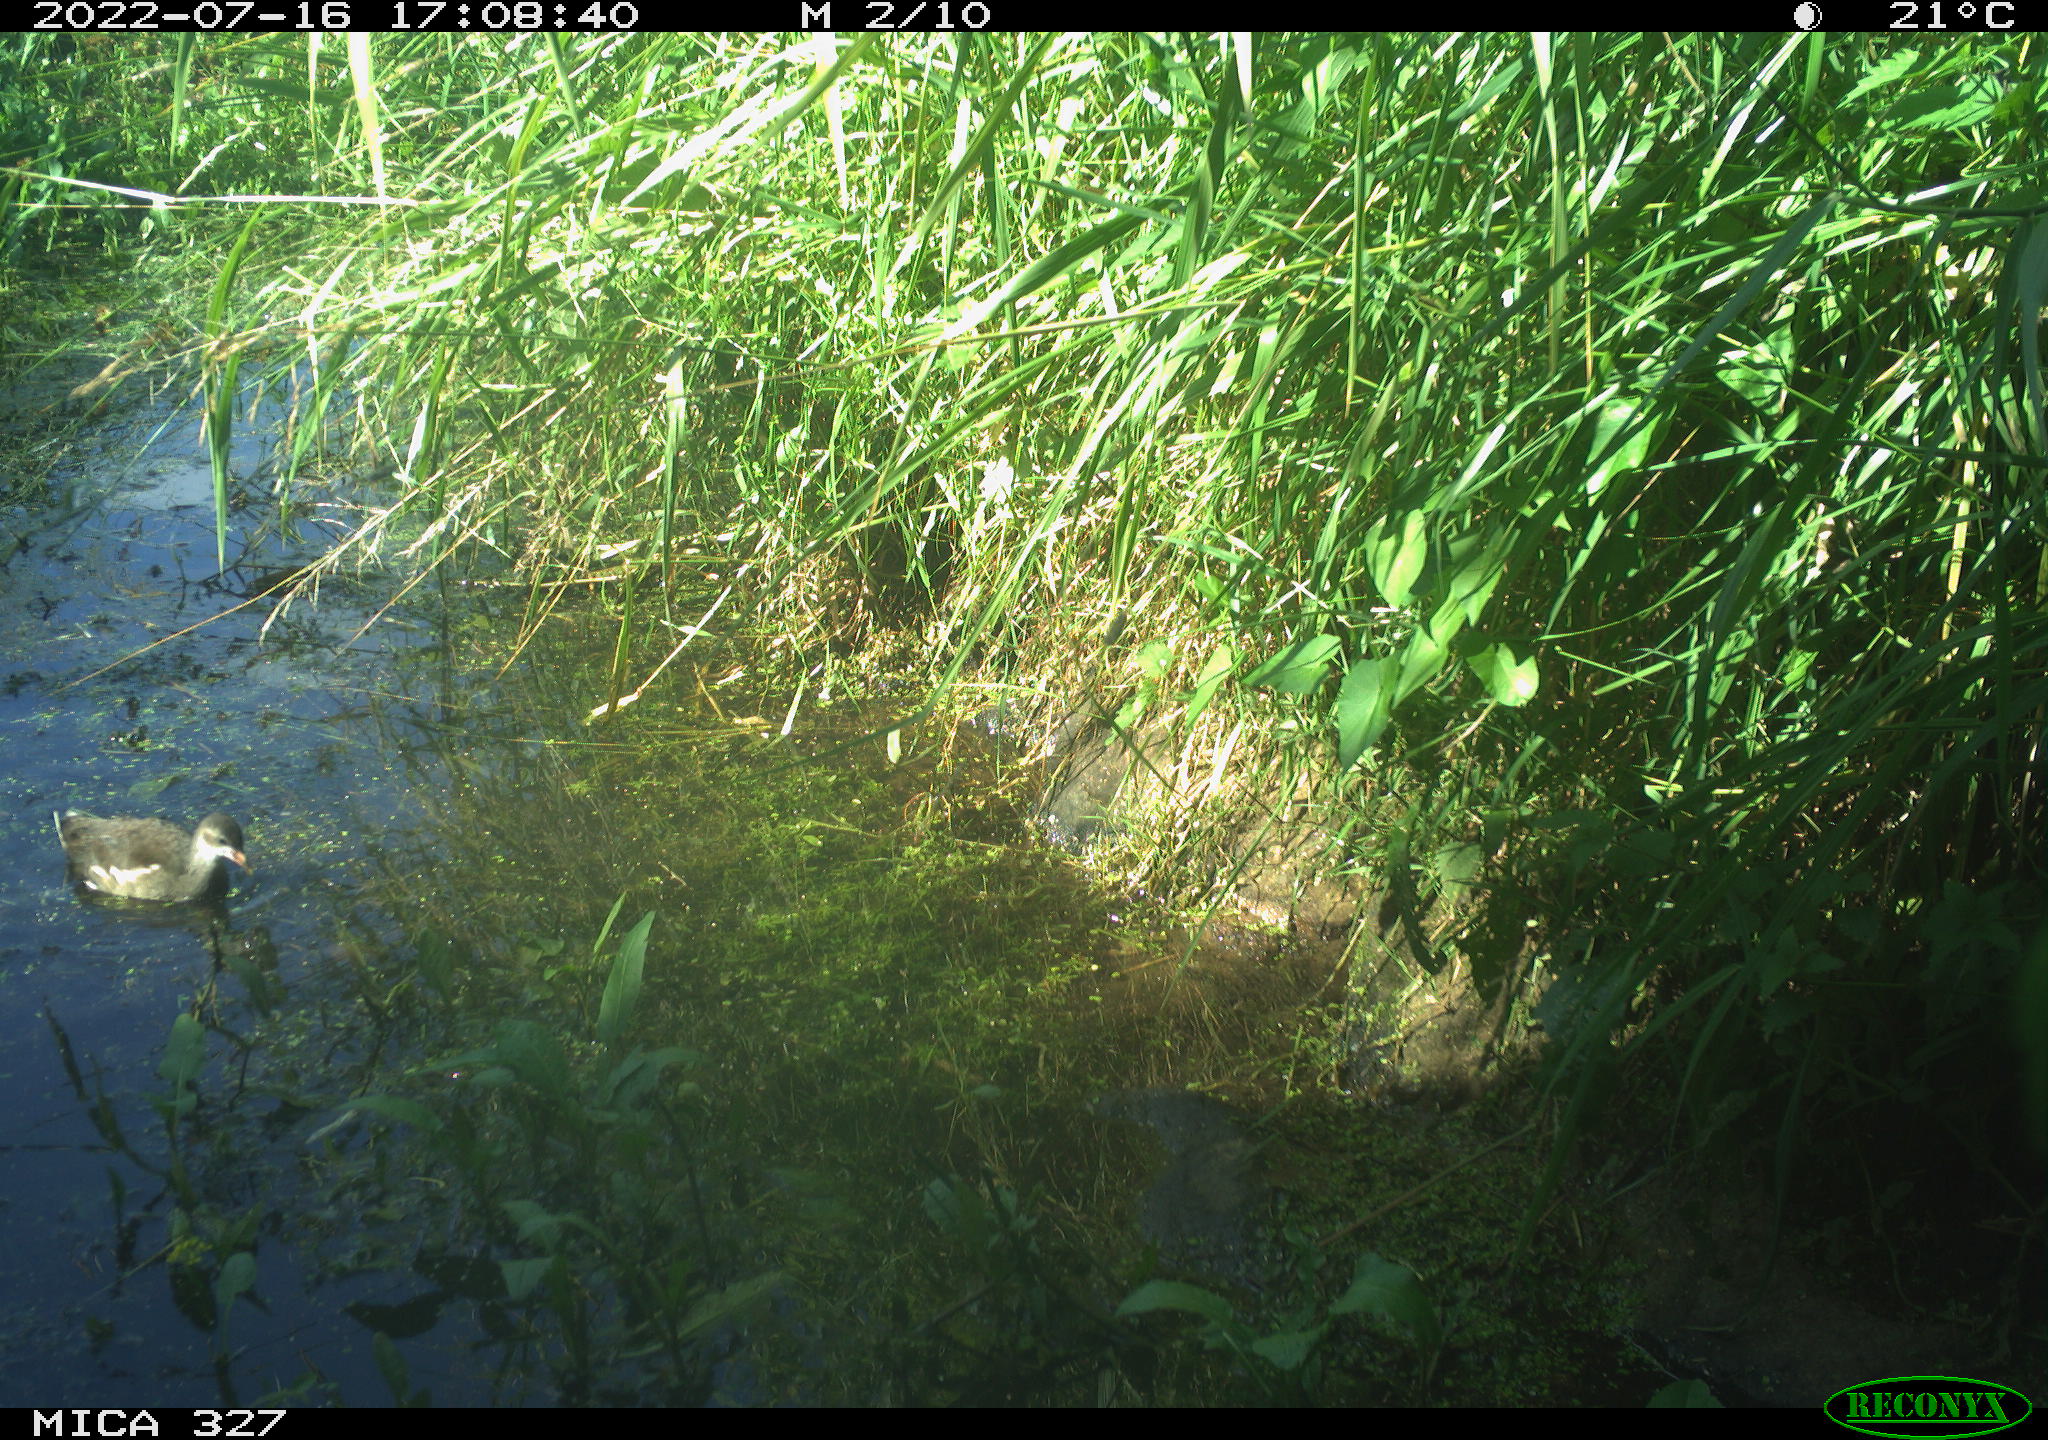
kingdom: Animalia
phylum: Chordata
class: Aves
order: Gruiformes
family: Rallidae
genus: Gallinula
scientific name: Gallinula chloropus
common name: Common moorhen
